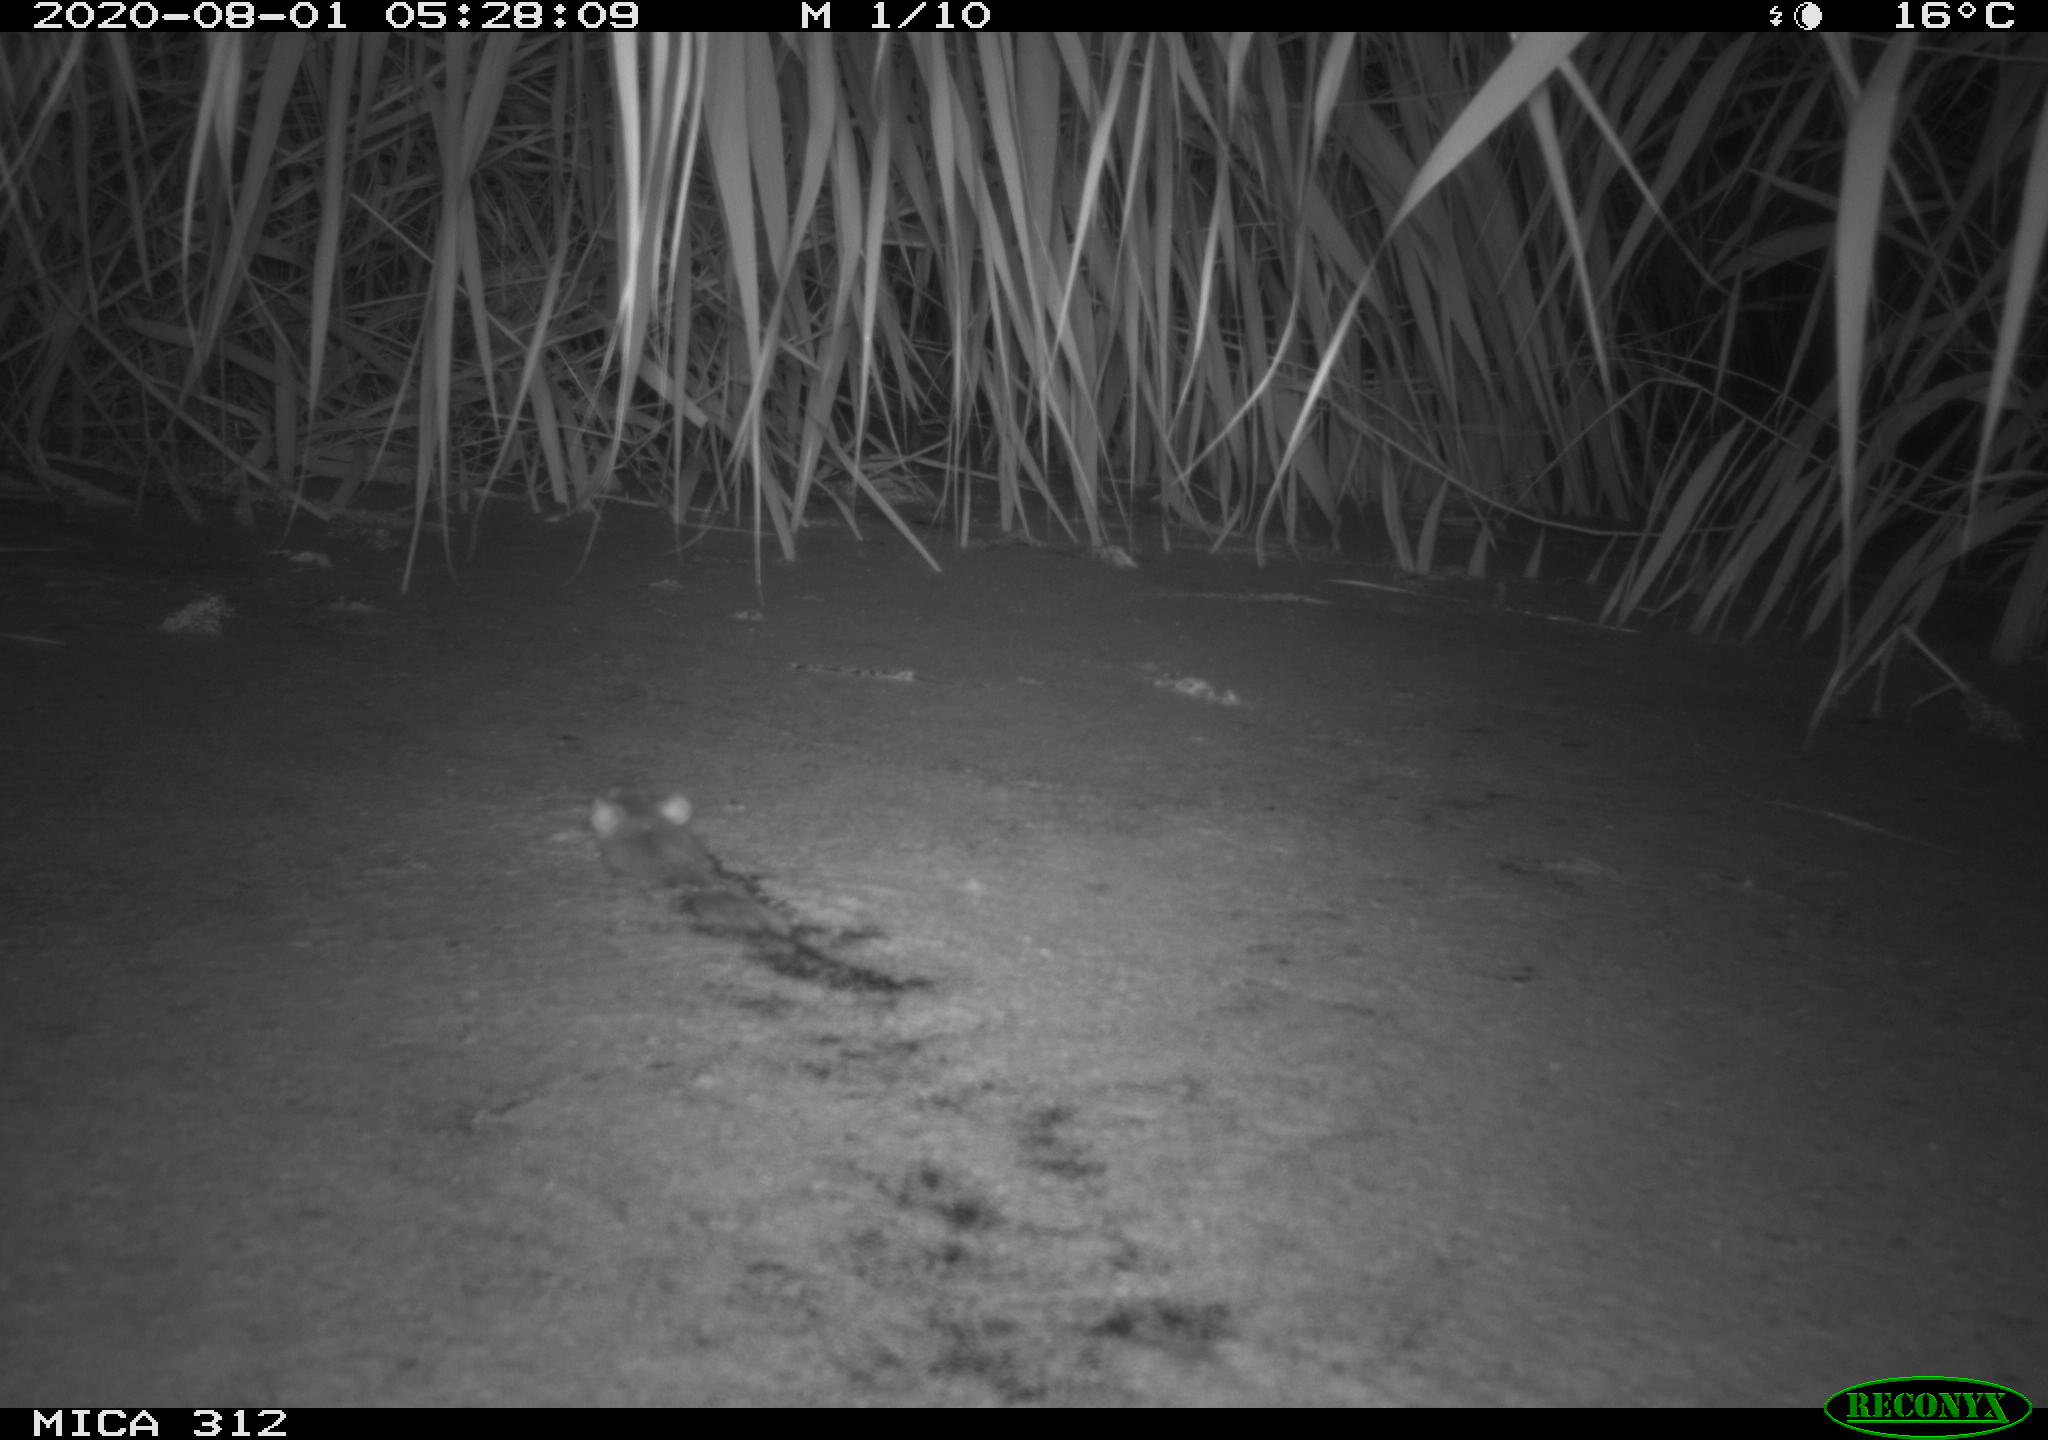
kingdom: Animalia
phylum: Chordata
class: Mammalia
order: Rodentia
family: Muridae
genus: Rattus
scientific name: Rattus norvegicus
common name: Brown rat
